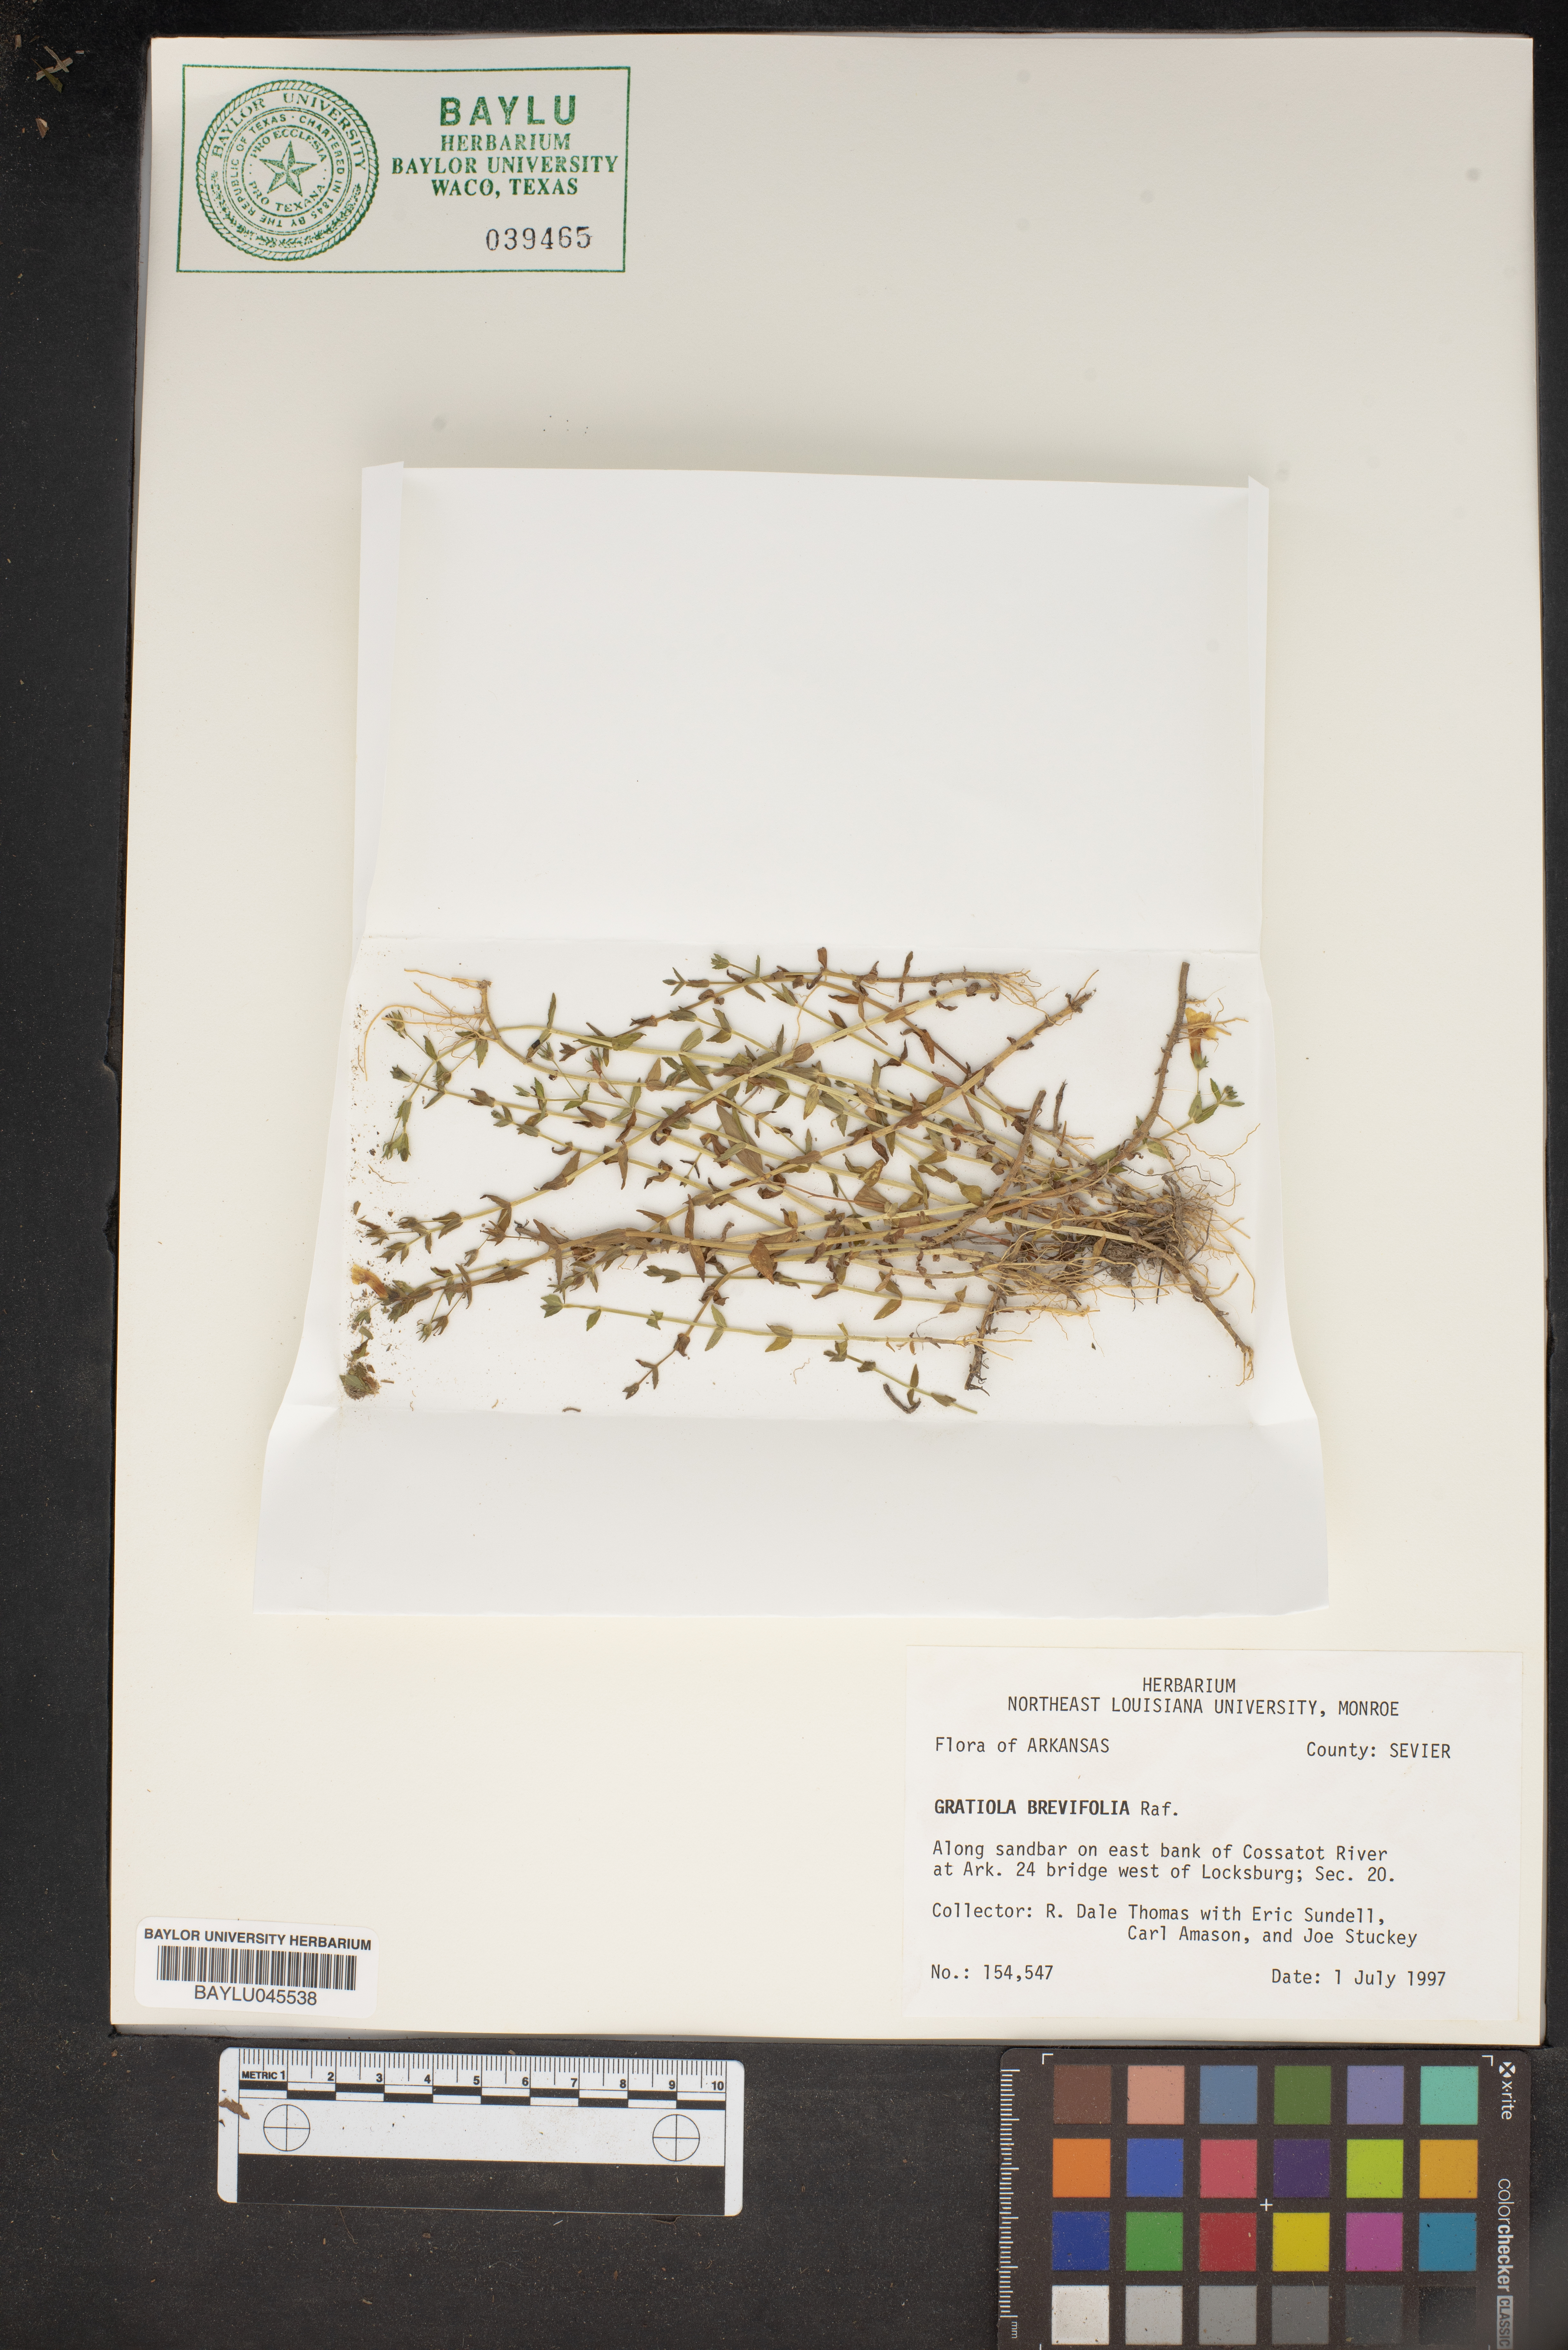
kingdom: Plantae
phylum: Tracheophyta
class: Magnoliopsida
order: Lamiales
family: Plantaginaceae
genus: Gratiola
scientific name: Gratiola brevifolia
